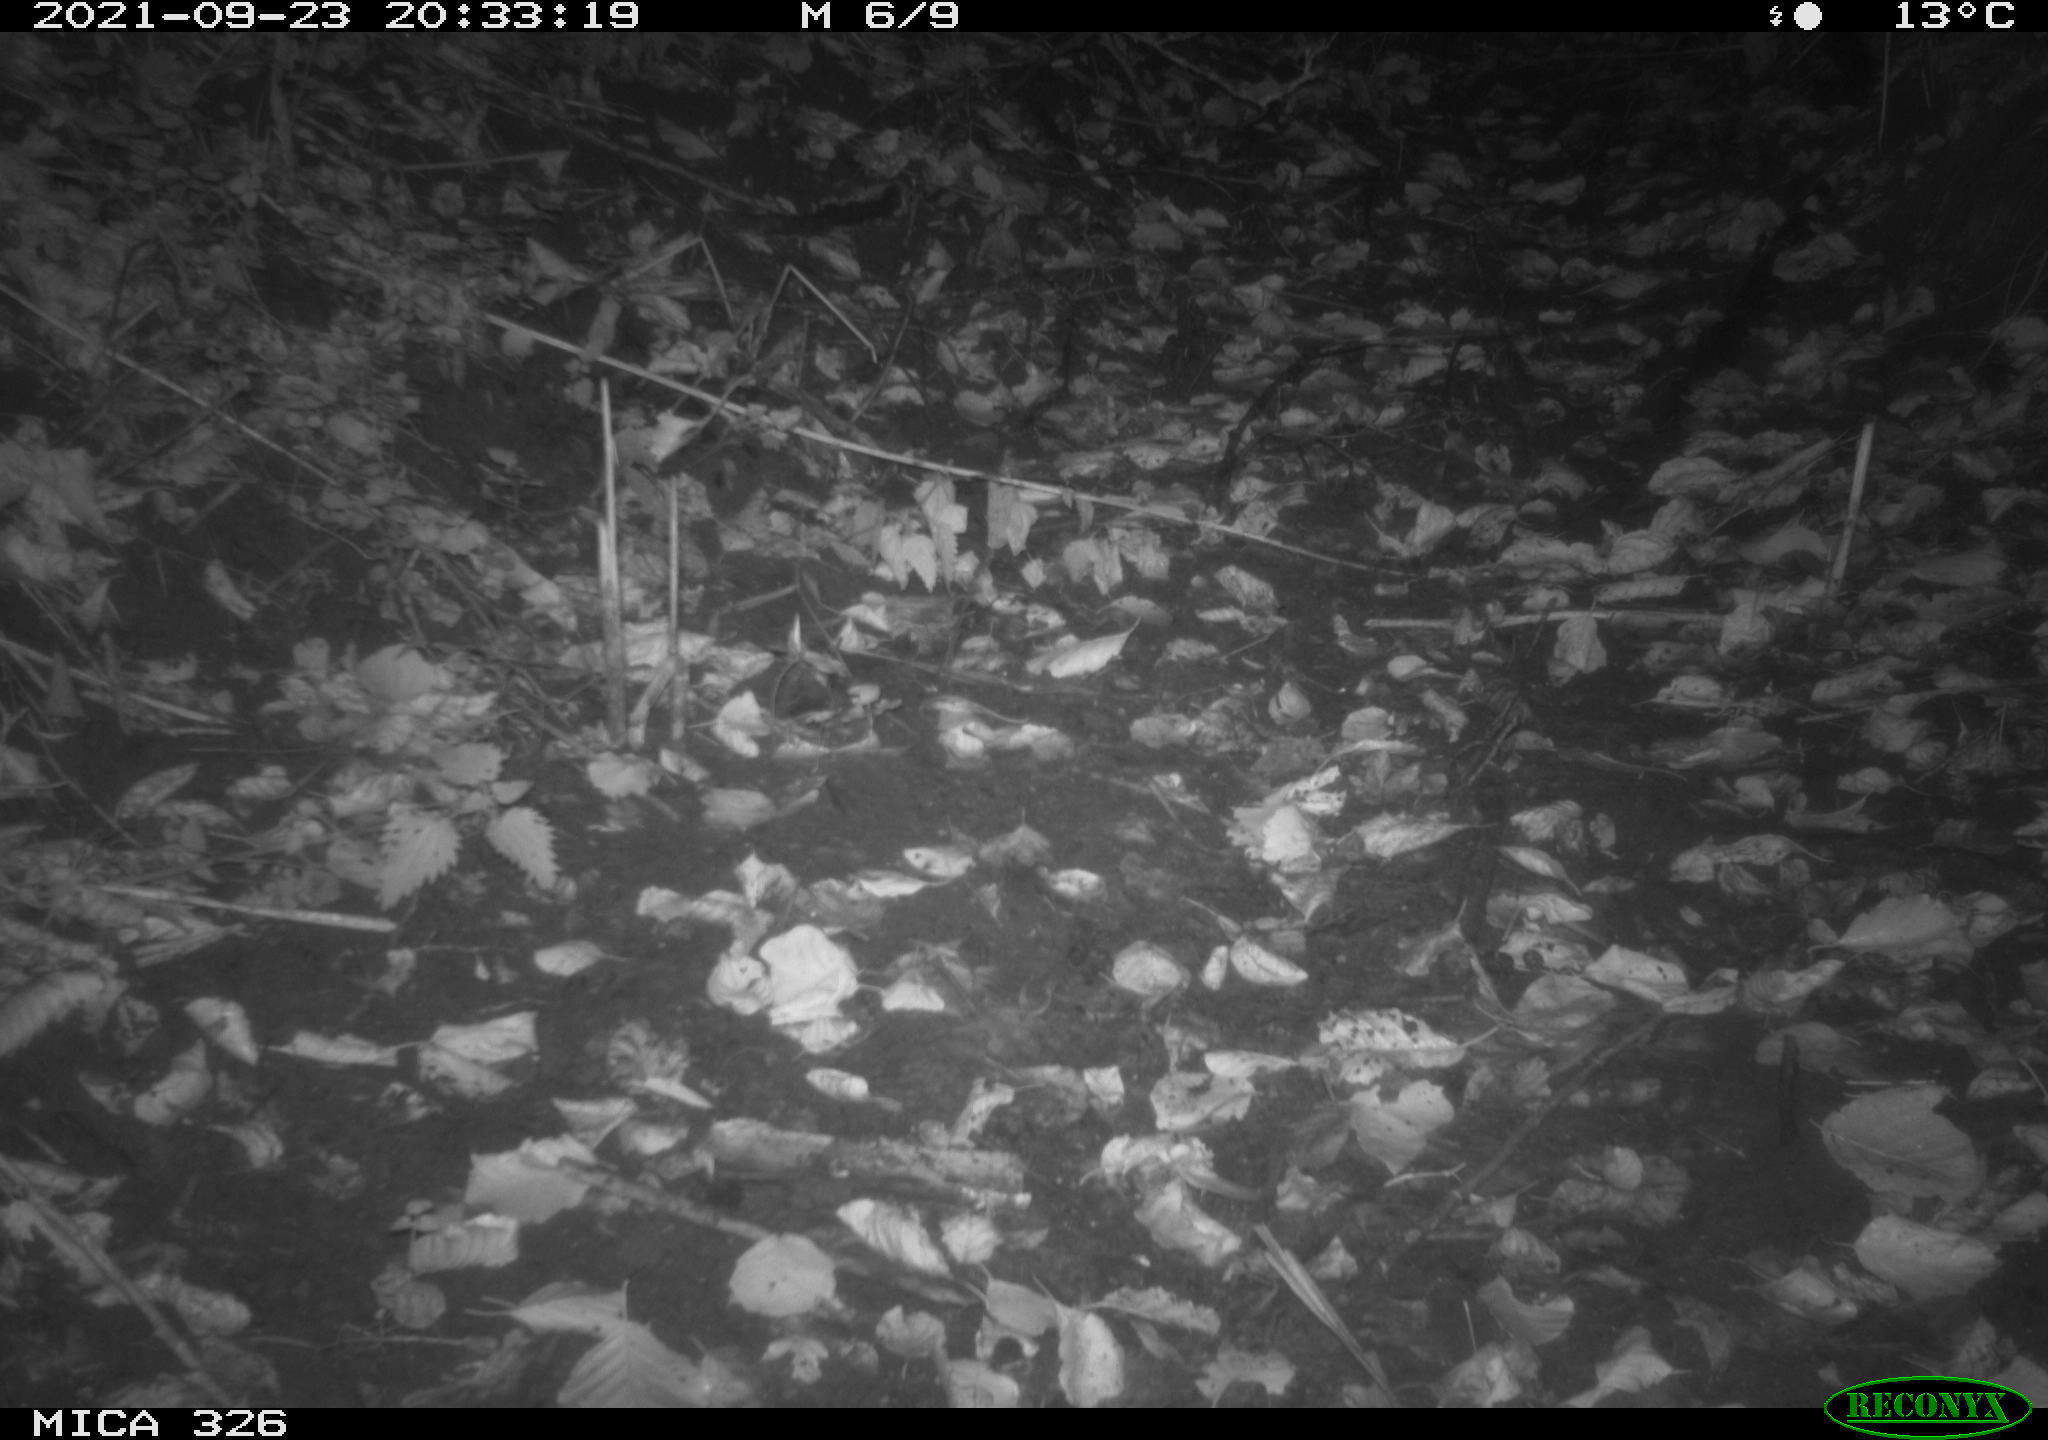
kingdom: Animalia
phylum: Chordata
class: Mammalia
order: Carnivora
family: Mustelidae
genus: Lutra
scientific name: Lutra lutra
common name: European otter
